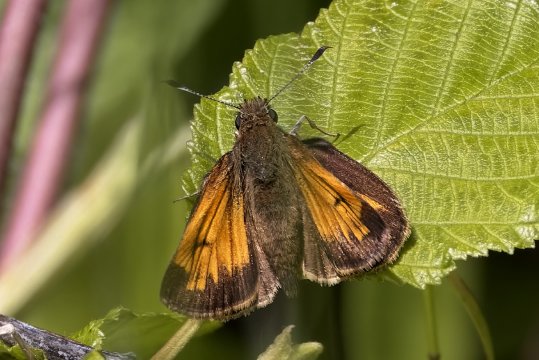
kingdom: Animalia
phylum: Arthropoda
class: Insecta
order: Lepidoptera
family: Hesperiidae
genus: Lon
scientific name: Lon hobomok
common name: Hobomok Skipper
